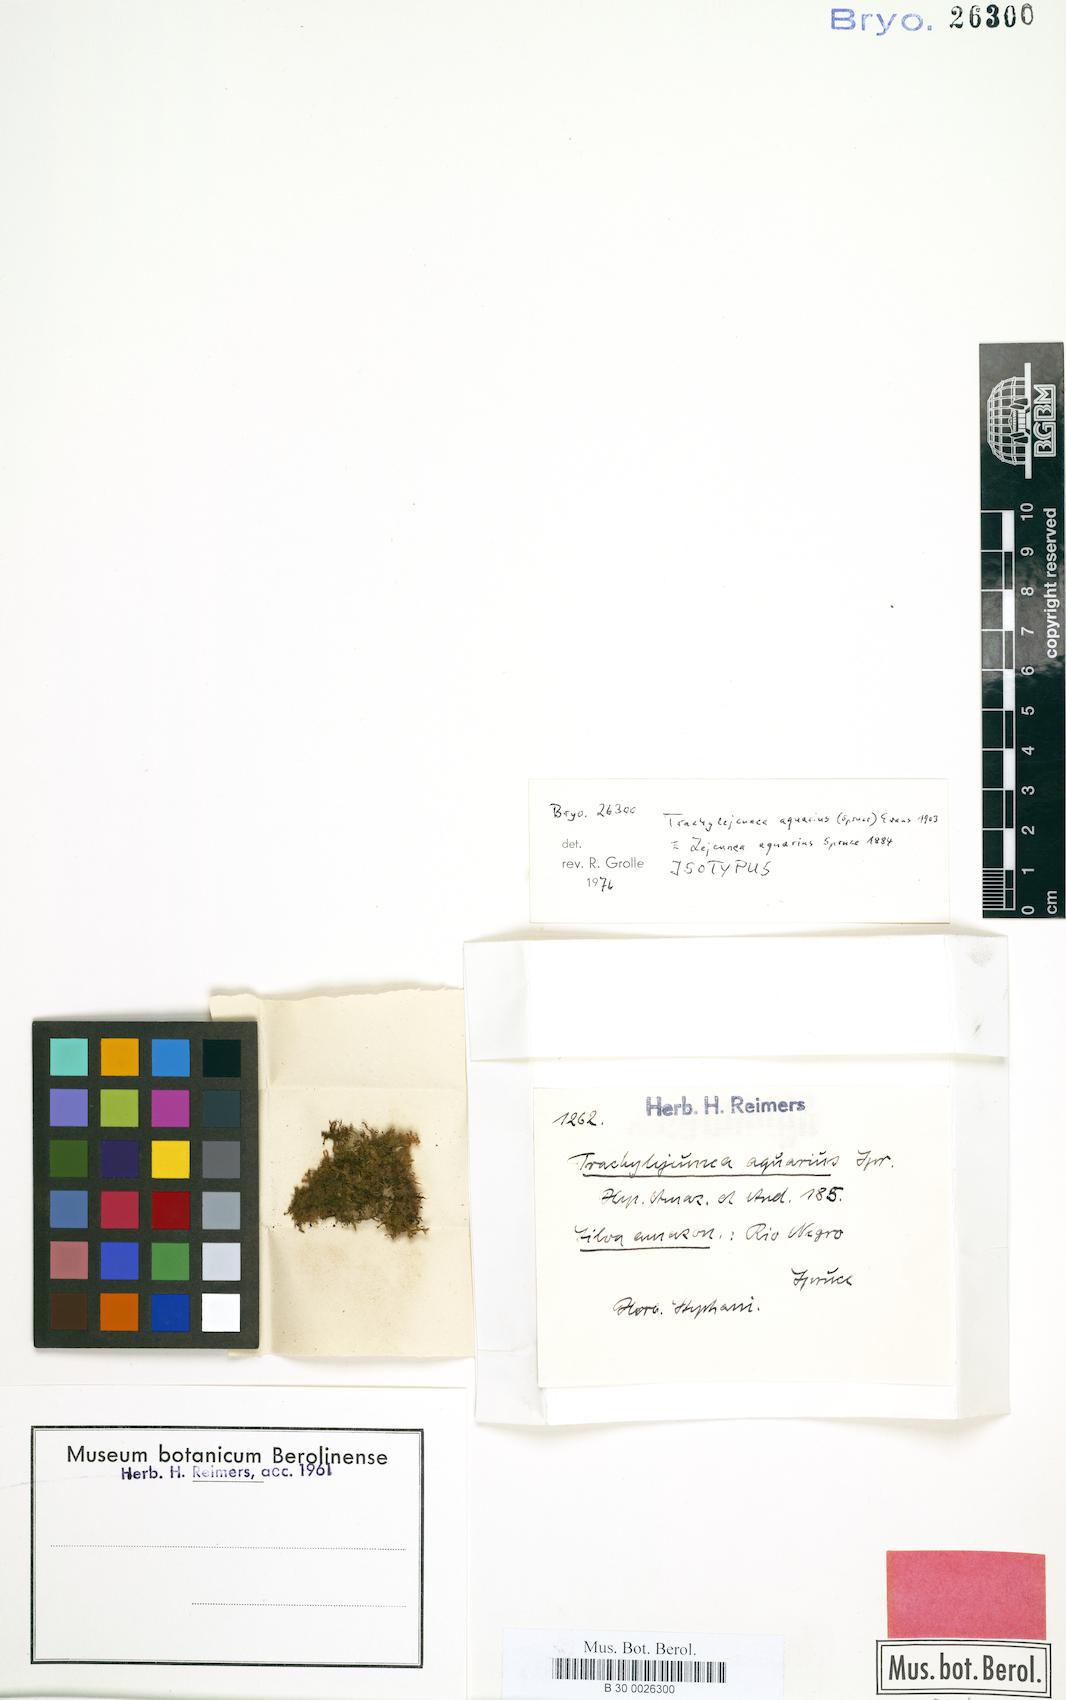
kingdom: Plantae
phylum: Marchantiophyta
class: Jungermanniopsida
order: Porellales
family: Lejeuneaceae
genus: Xylolejeunea
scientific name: Xylolejeunea aquarius
